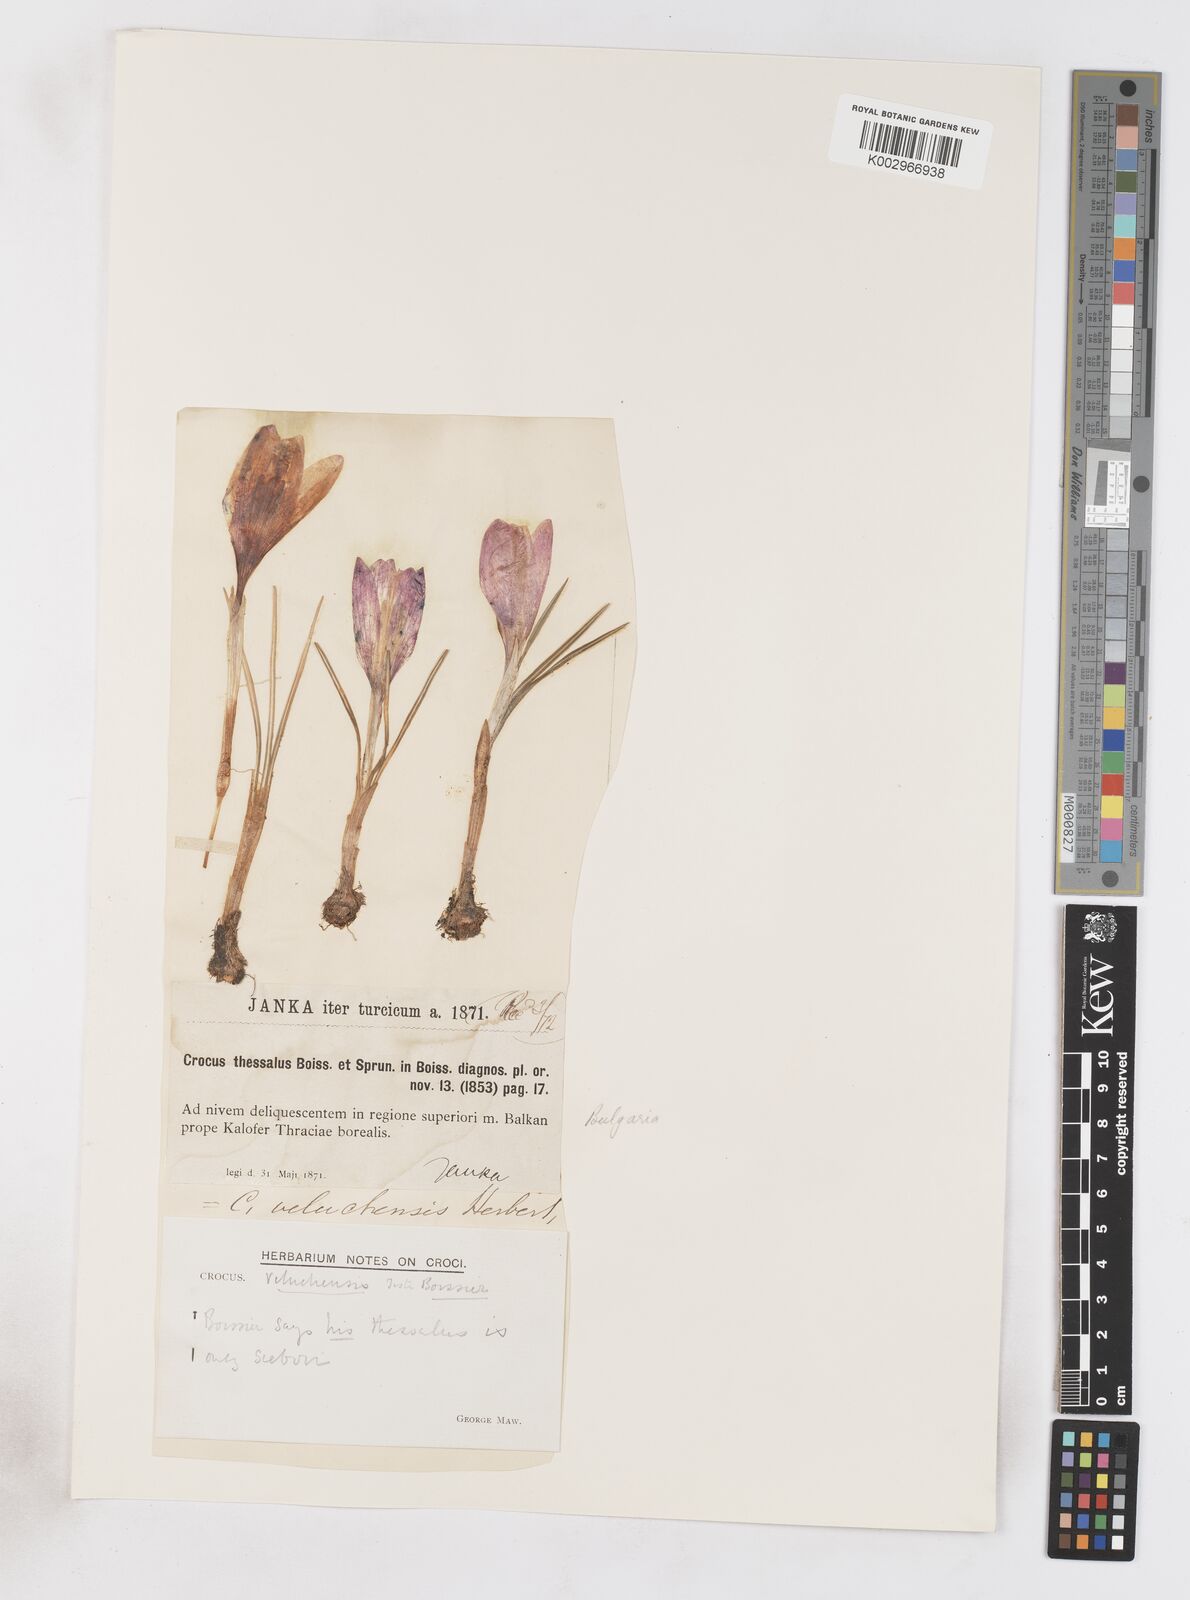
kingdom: Plantae
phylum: Tracheophyta
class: Liliopsida
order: Asparagales
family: Iridaceae
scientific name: Iridaceae
